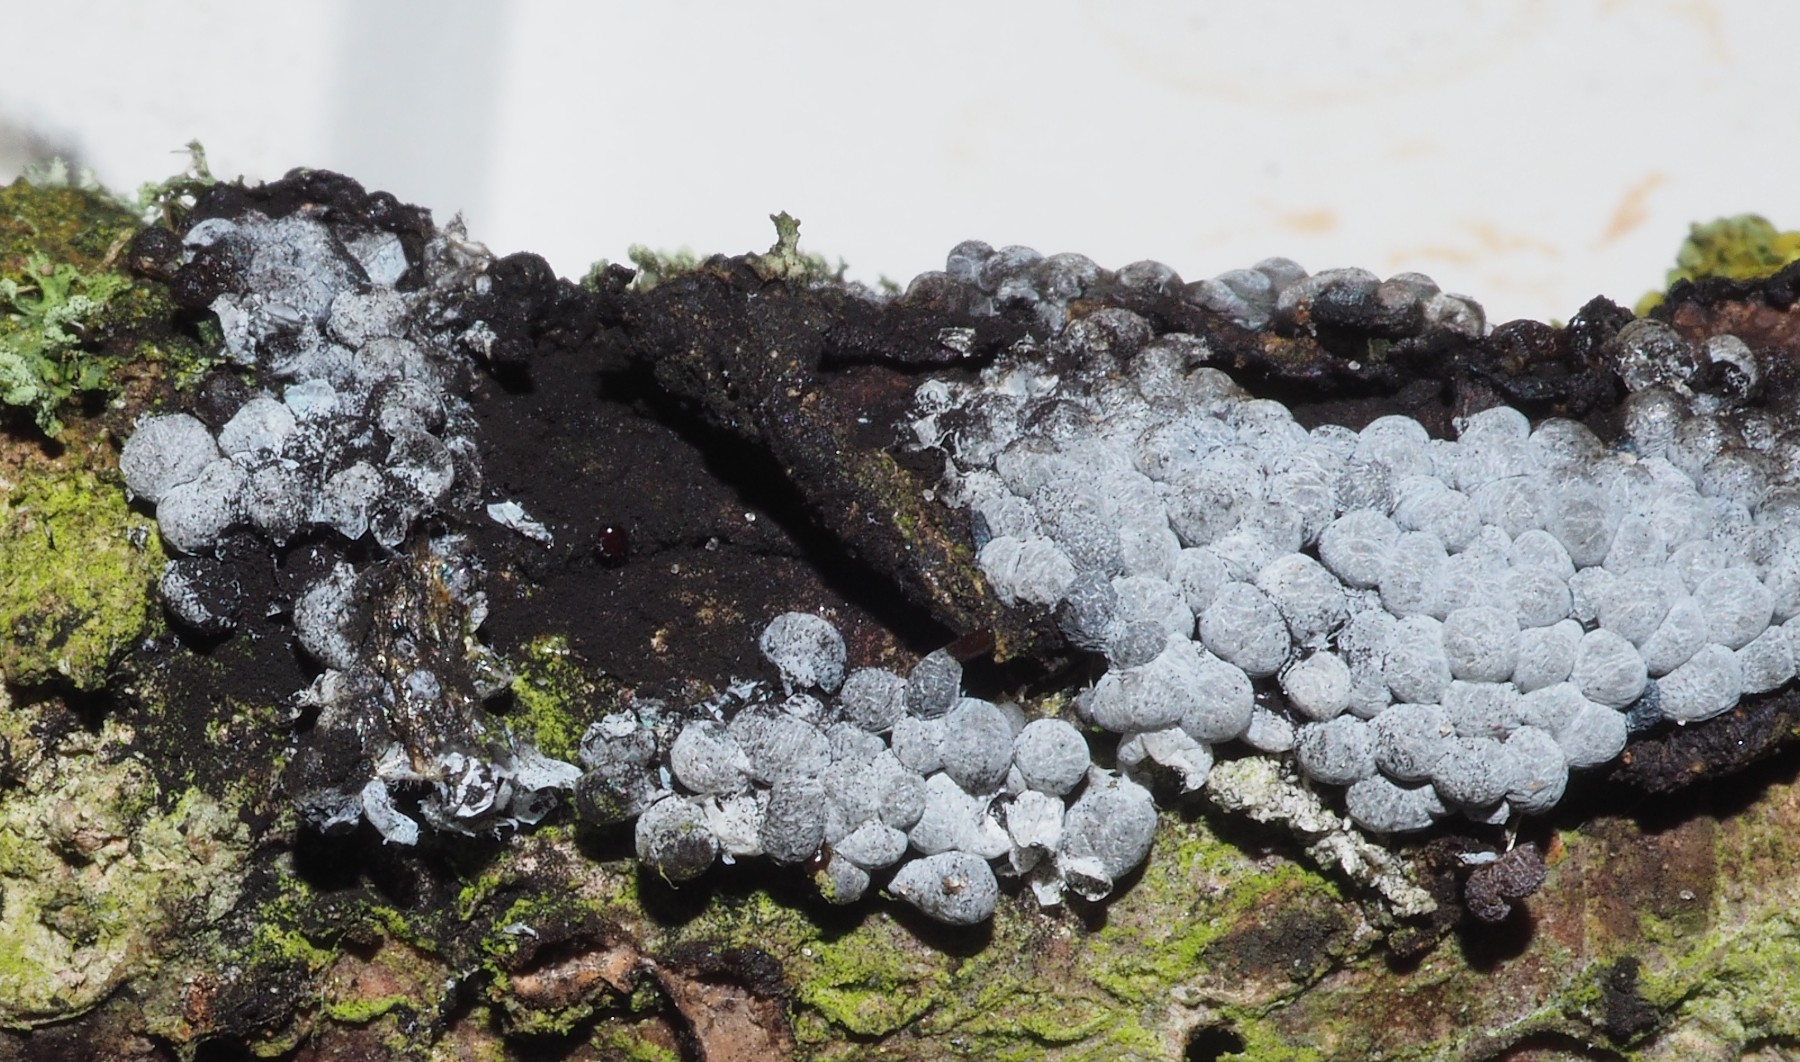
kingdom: Protozoa
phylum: Mycetozoa
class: Myxomycetes
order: Physarales
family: Physaraceae
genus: Badhamia
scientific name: Badhamia utricularis
